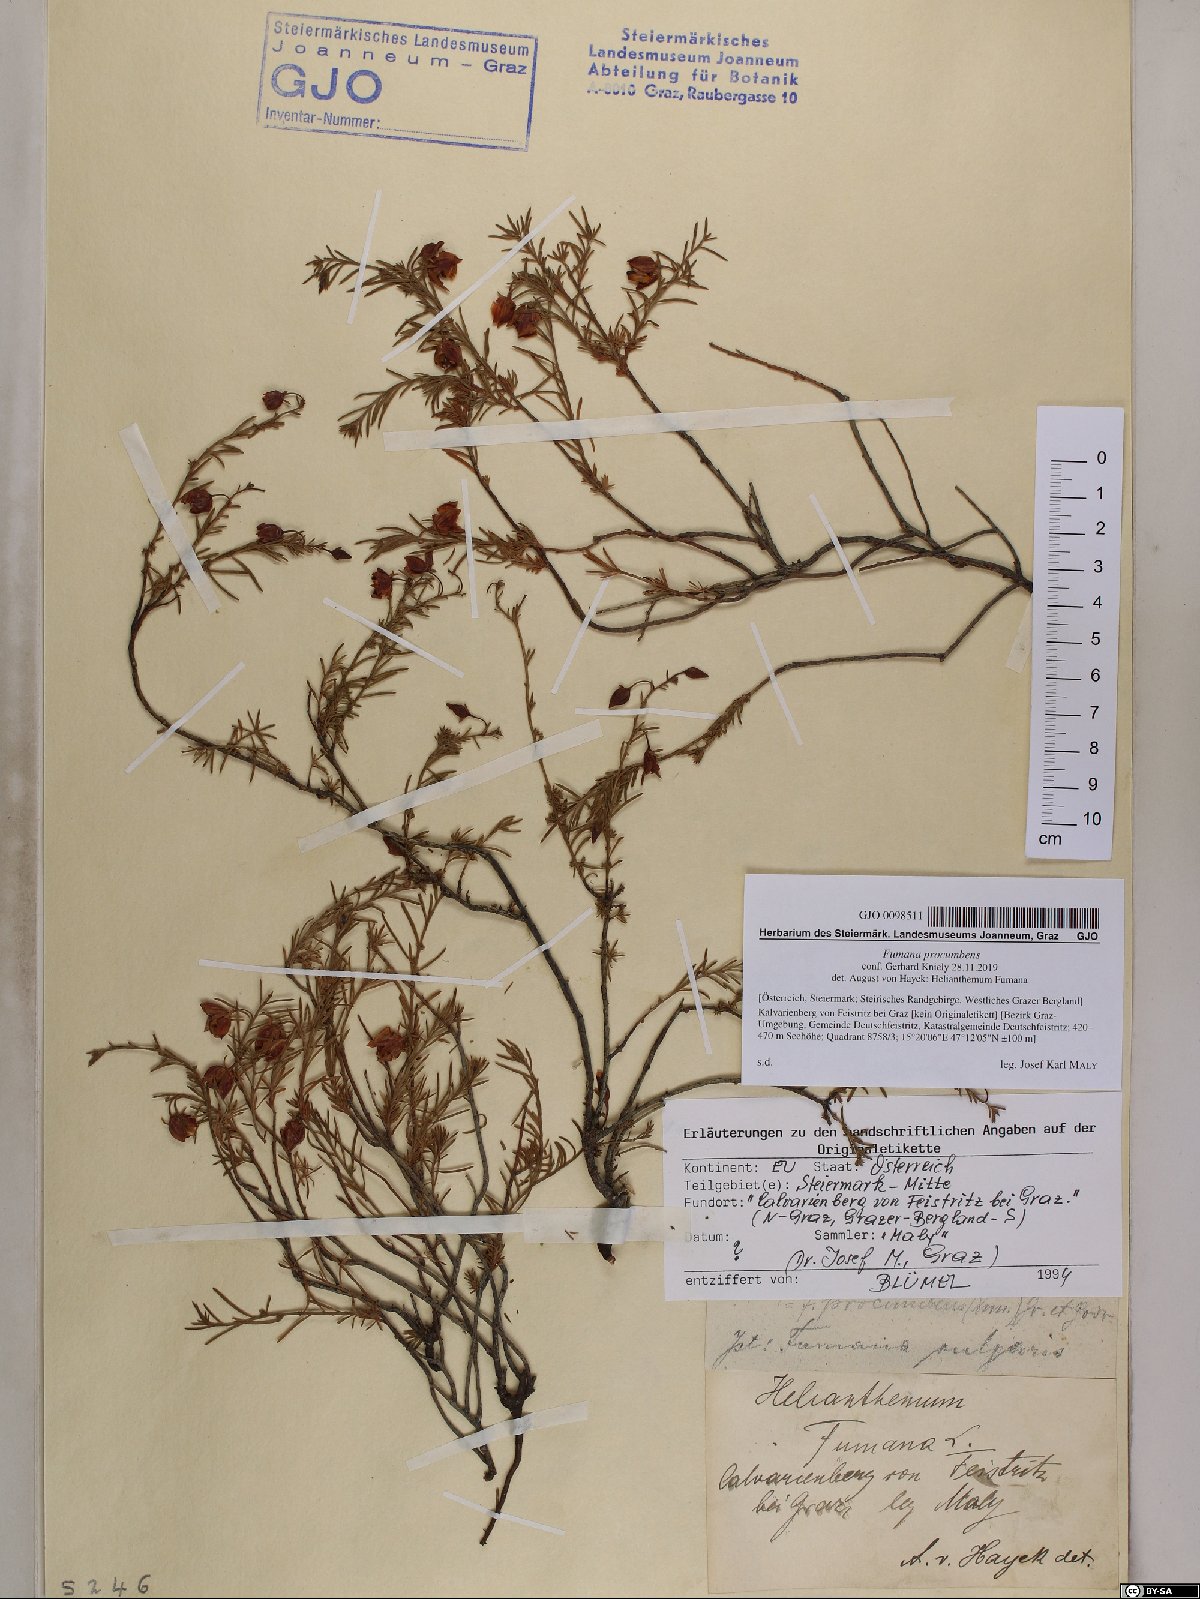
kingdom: Plantae
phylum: Tracheophyta
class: Magnoliopsida
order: Malvales
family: Cistaceae
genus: Fumana
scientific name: Fumana procumbens
